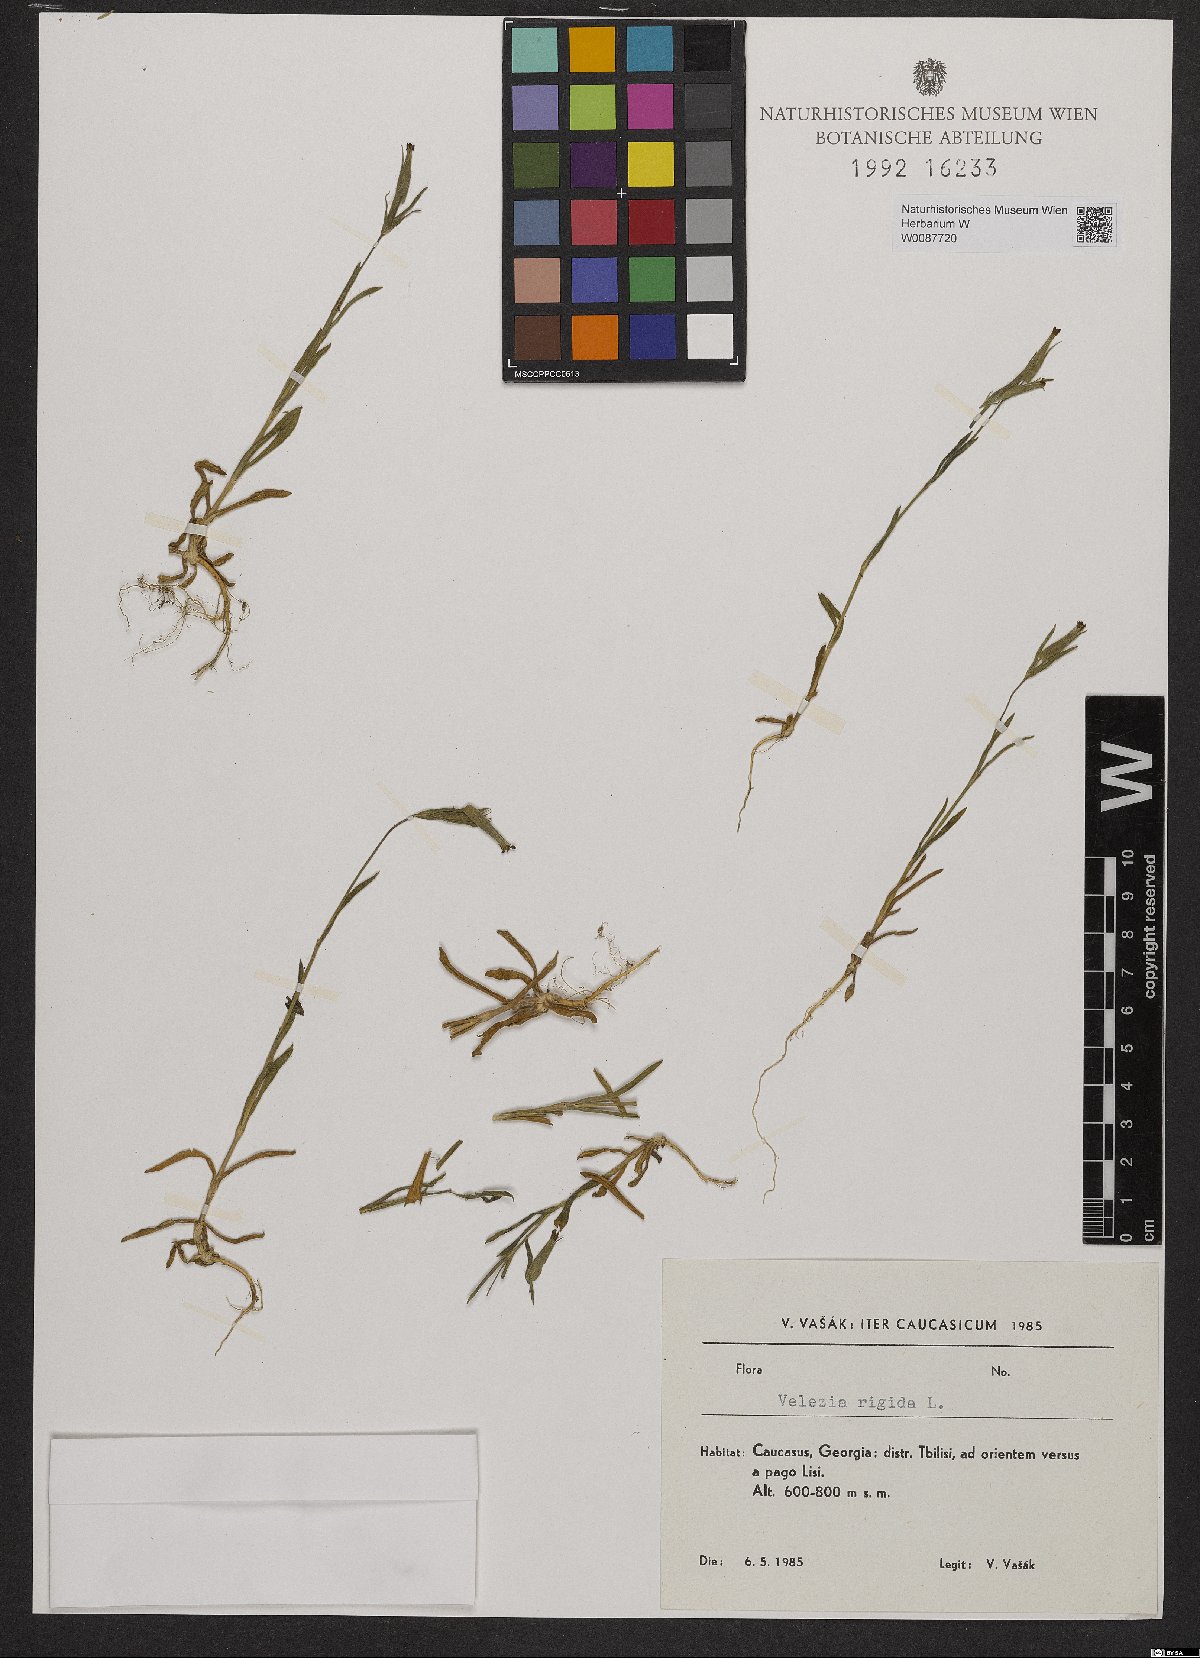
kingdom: Plantae
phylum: Tracheophyta
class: Magnoliopsida
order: Caryophyllales
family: Caryophyllaceae
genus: Dianthus
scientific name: Dianthus nudiflorus
